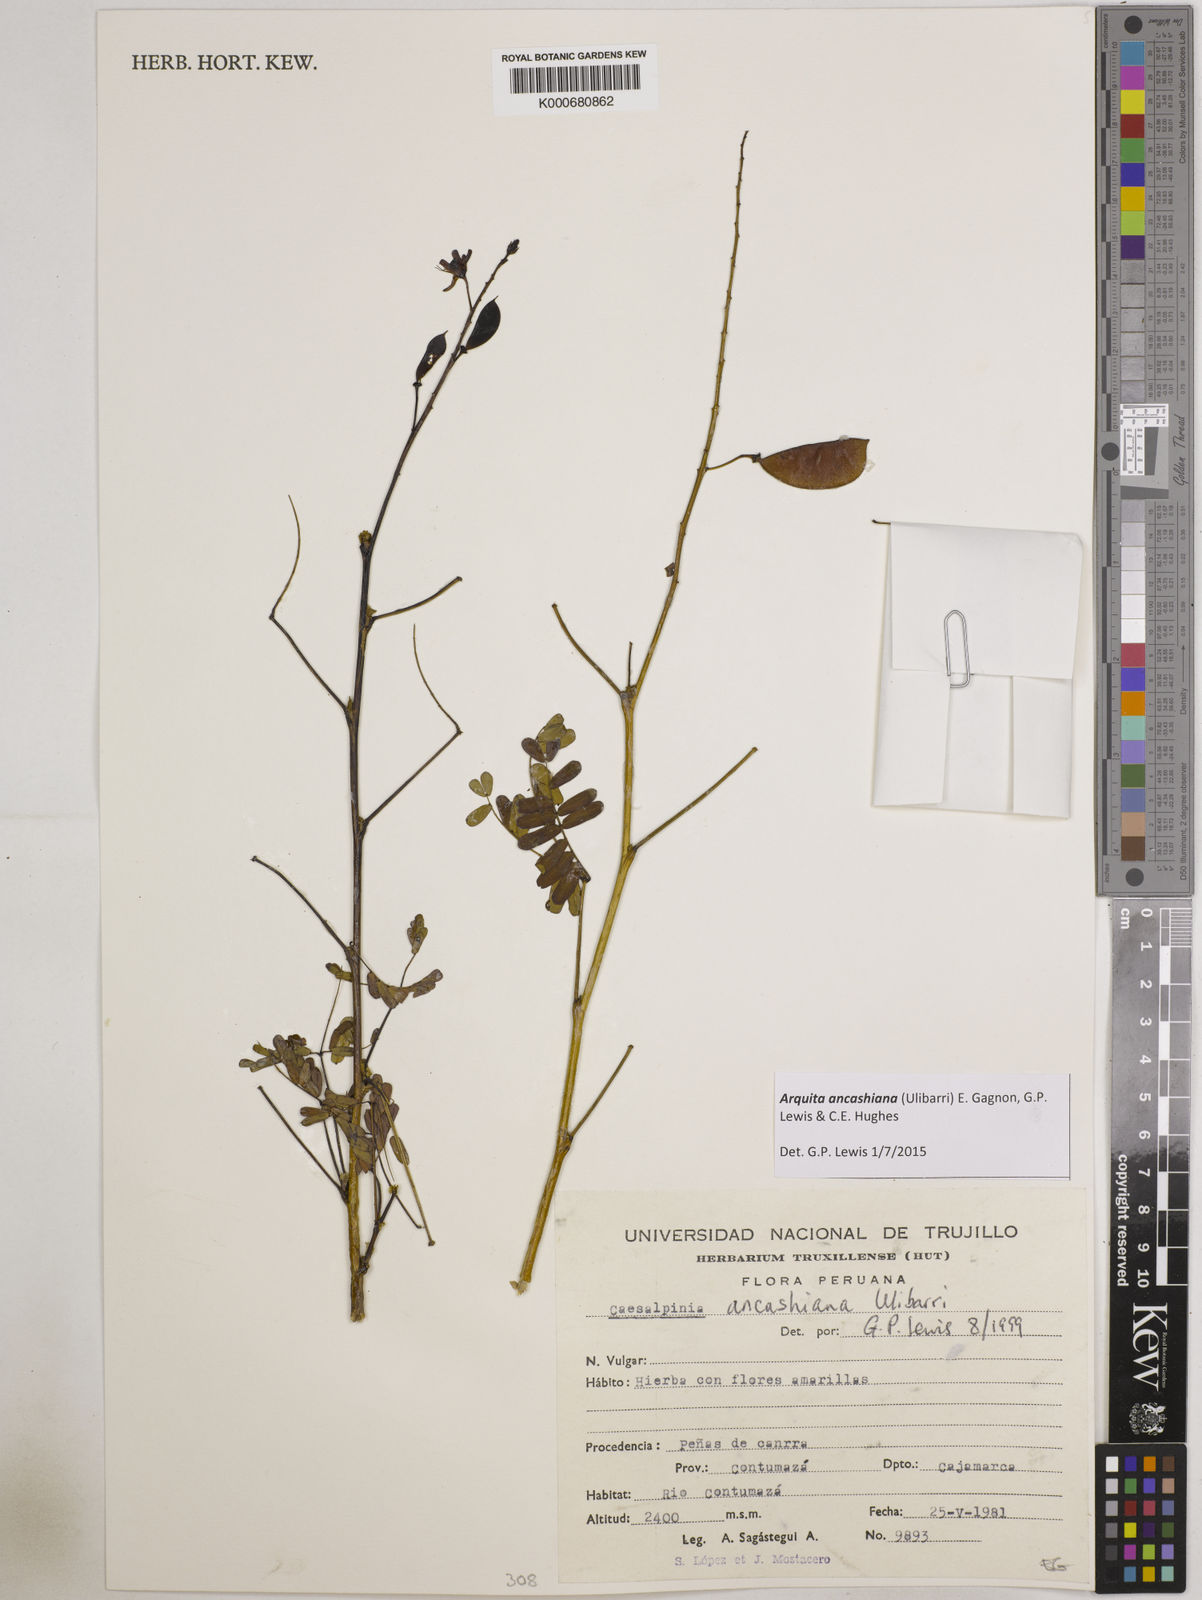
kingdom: Plantae
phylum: Tracheophyta
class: Magnoliopsida
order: Fabales
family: Fabaceae
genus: Arquita
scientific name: Arquita ancashiana
